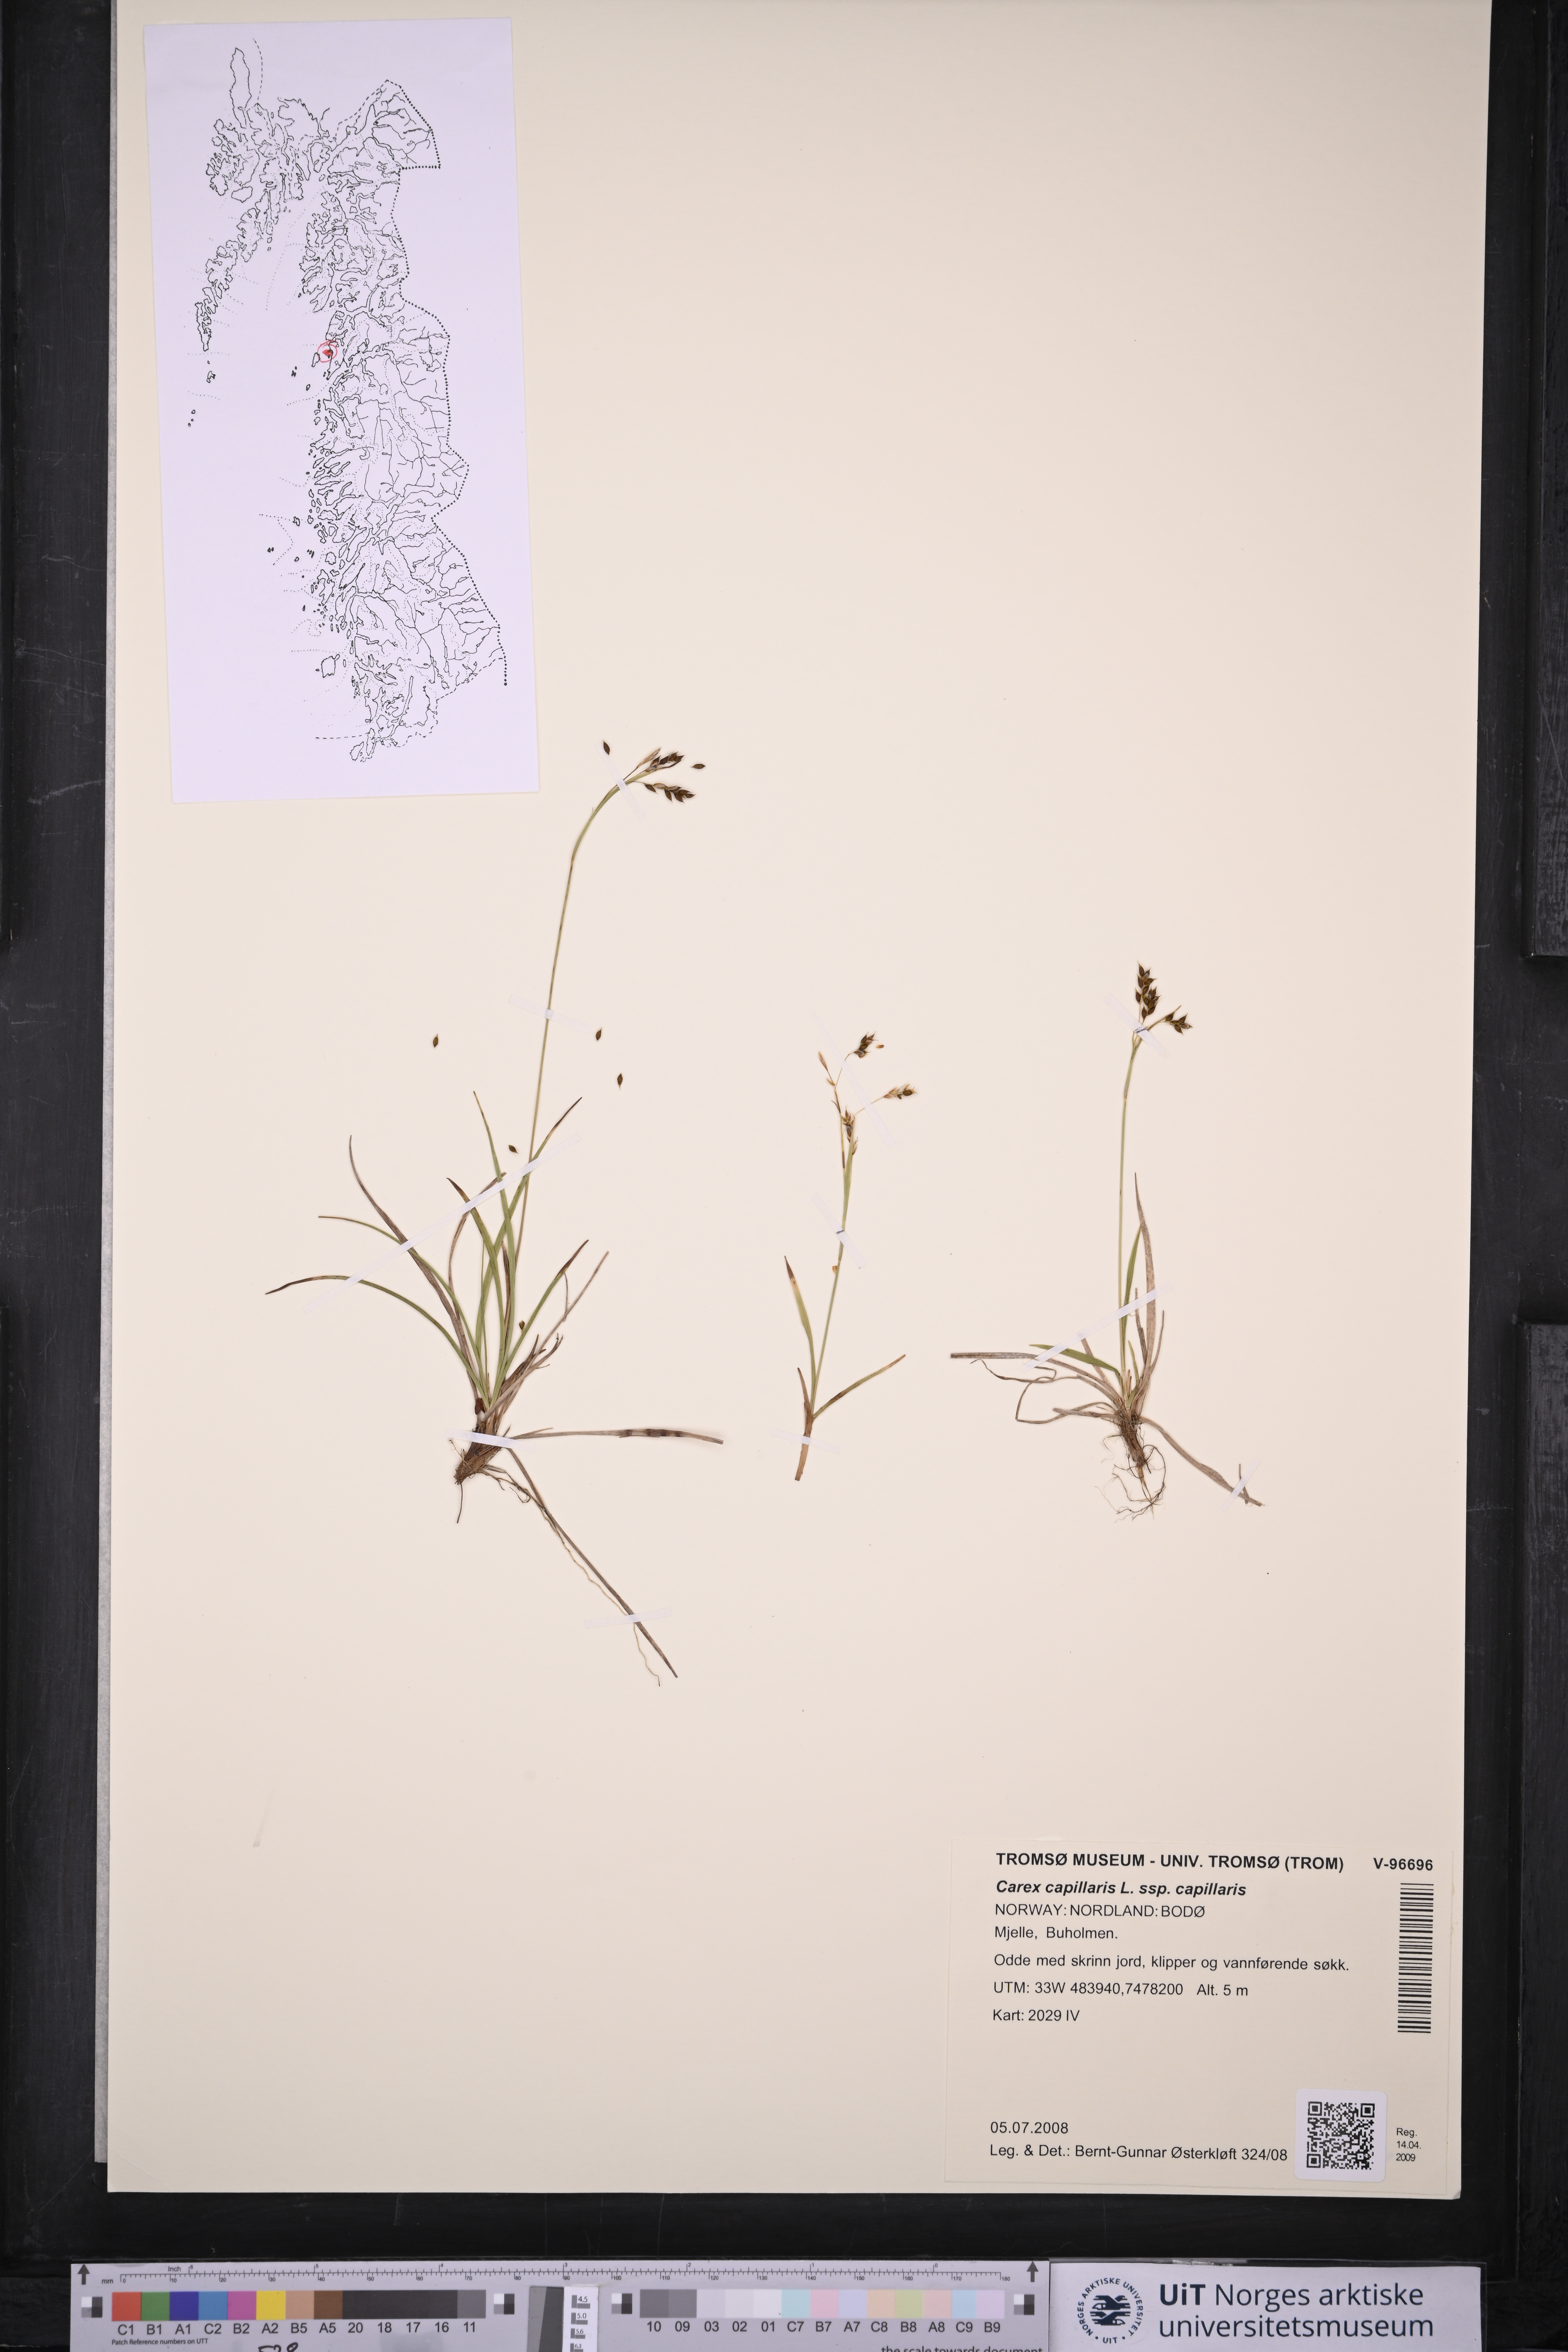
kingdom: Plantae
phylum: Tracheophyta
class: Liliopsida
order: Poales
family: Cyperaceae
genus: Carex
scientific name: Carex capillaris
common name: Hair sedge
